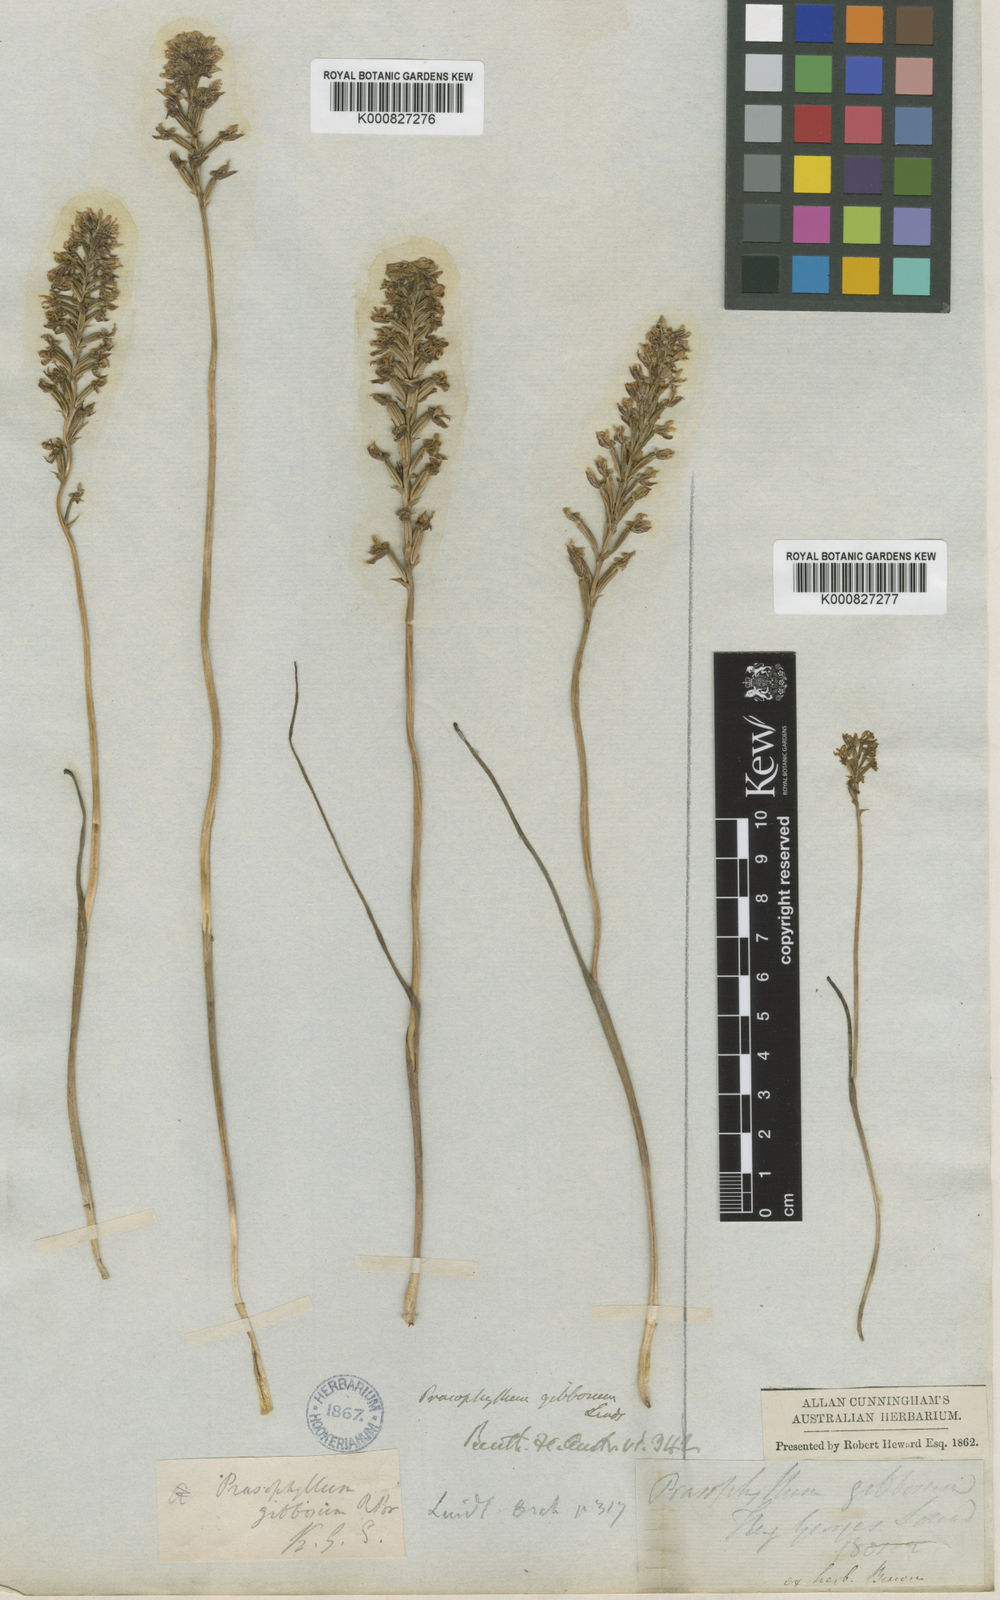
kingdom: Plantae
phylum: Tracheophyta
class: Liliopsida
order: Asparagales
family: Orchidaceae
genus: Prasophyllum
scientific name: Prasophyllum gibbosum
